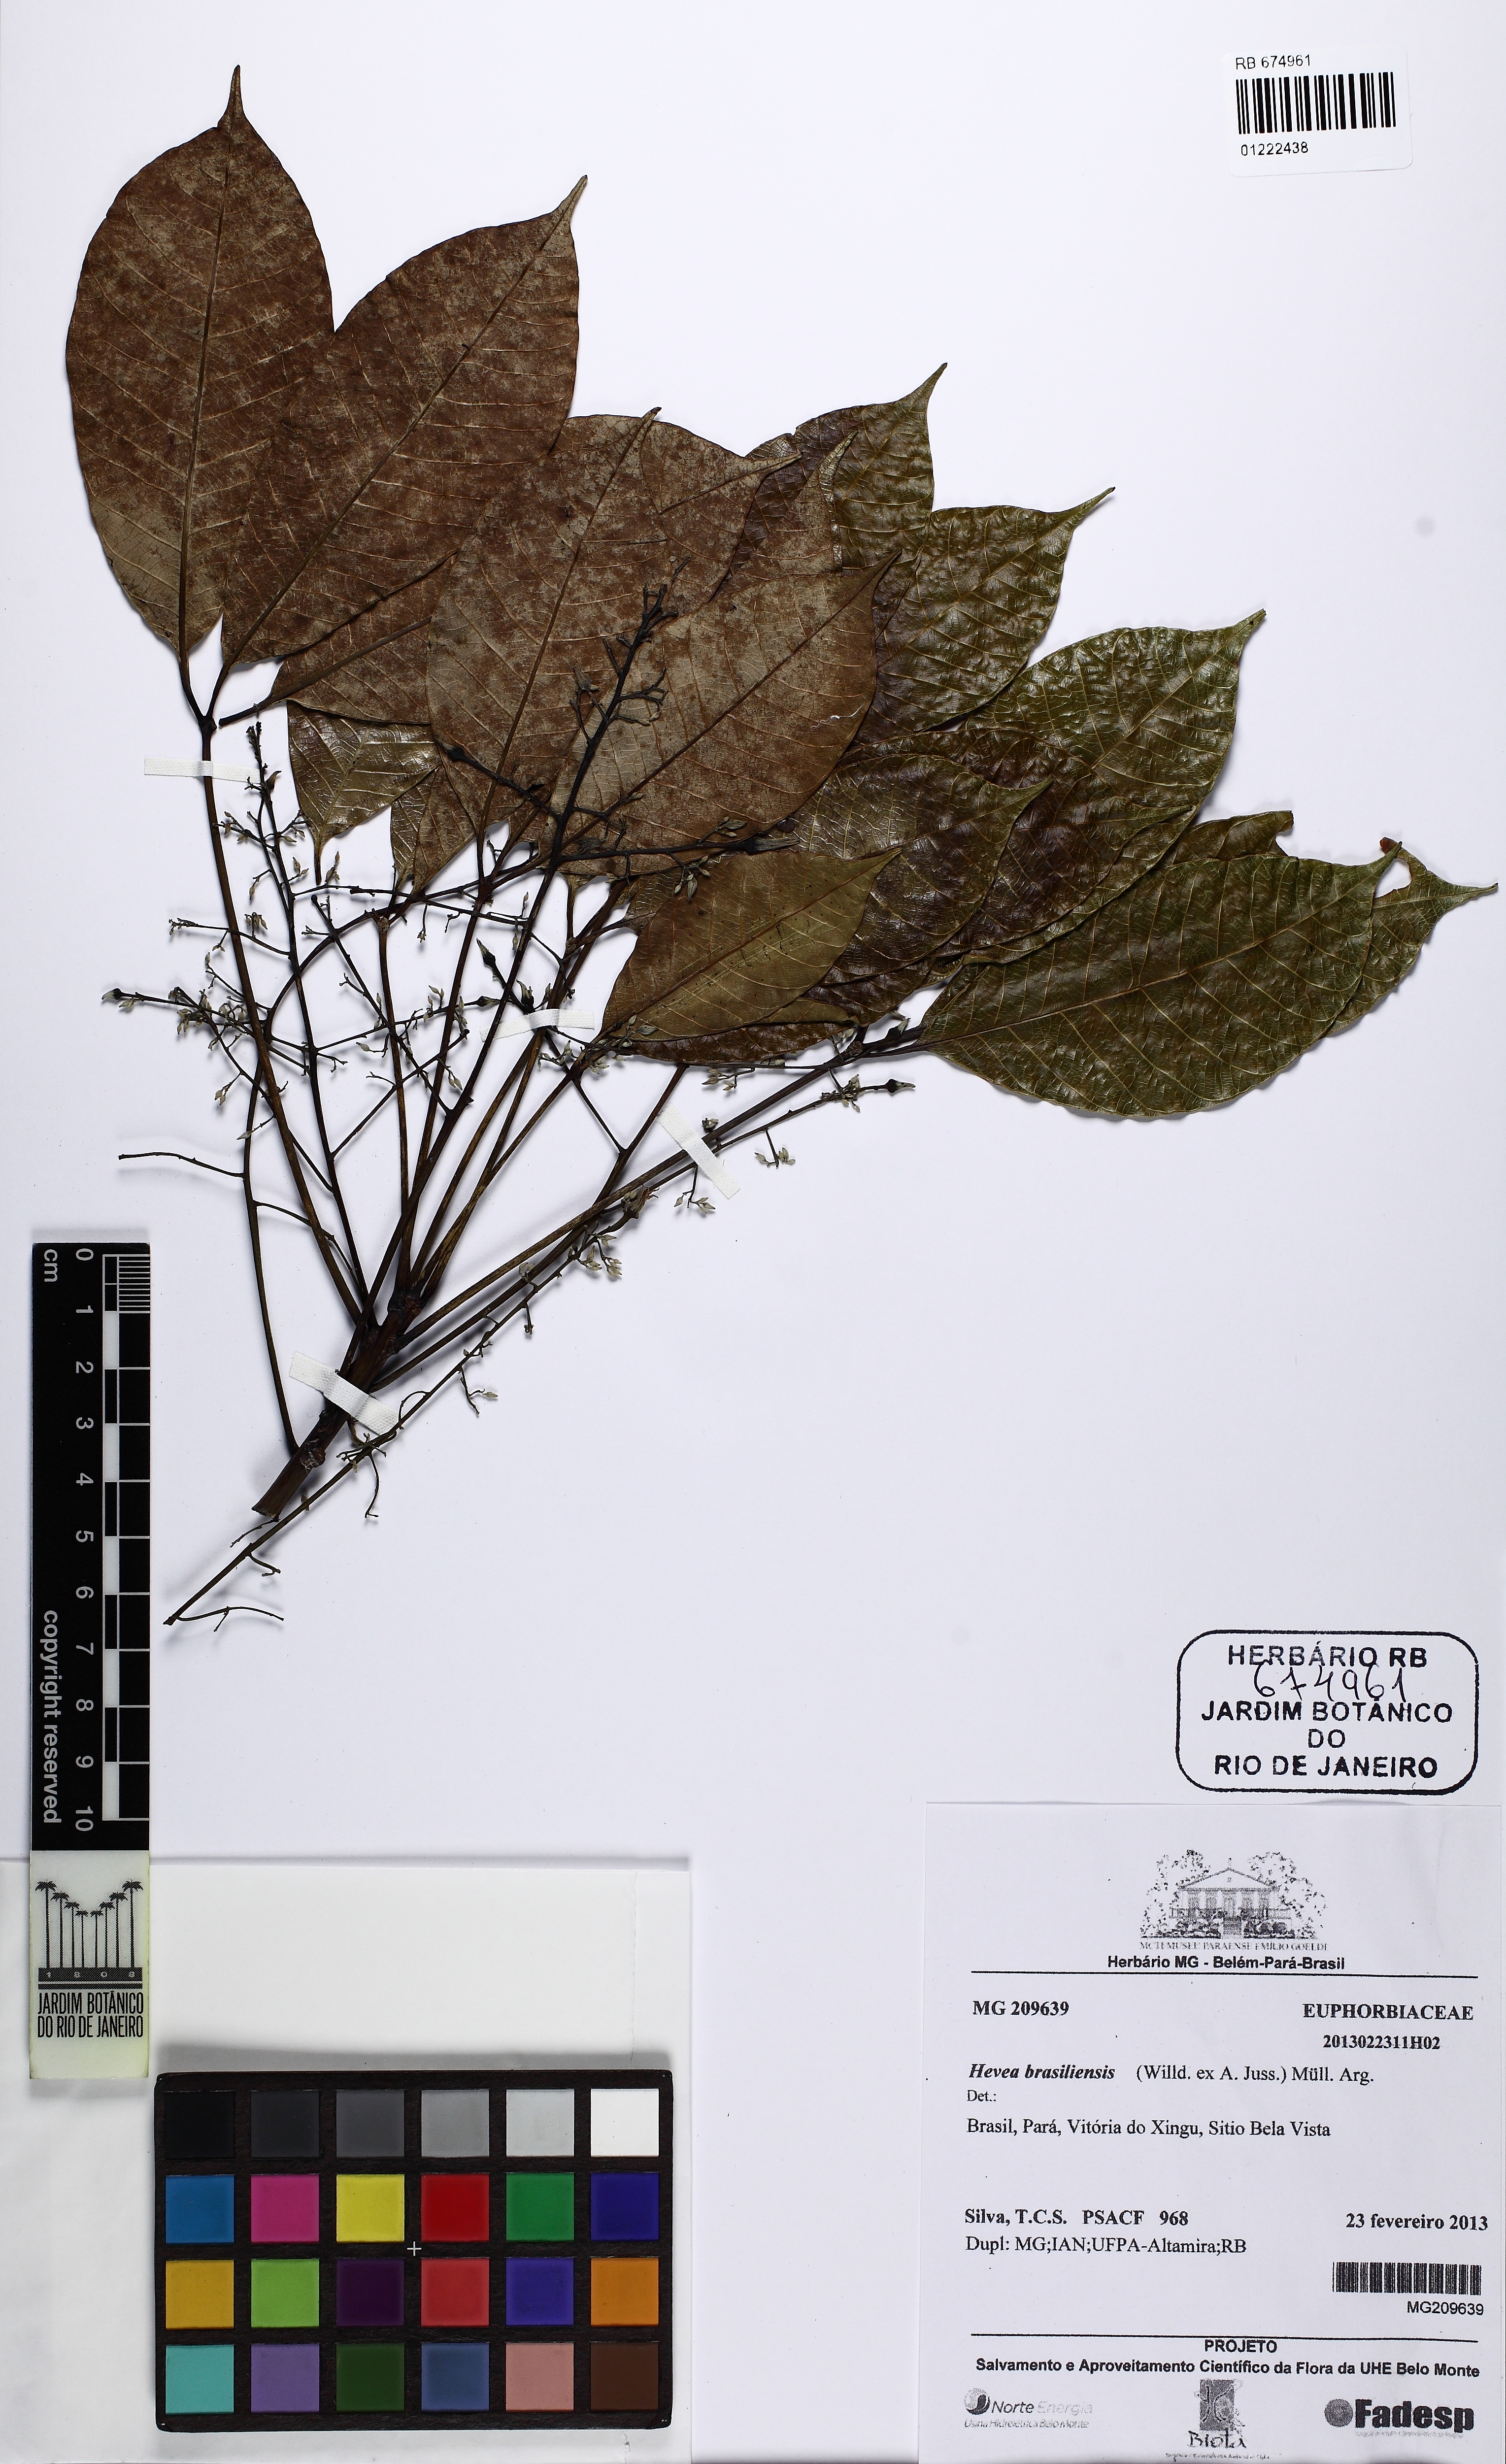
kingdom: Plantae
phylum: Tracheophyta
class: Magnoliopsida
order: Malpighiales
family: Euphorbiaceae
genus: Hevea
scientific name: Hevea brasiliensis
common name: Natural rubber
